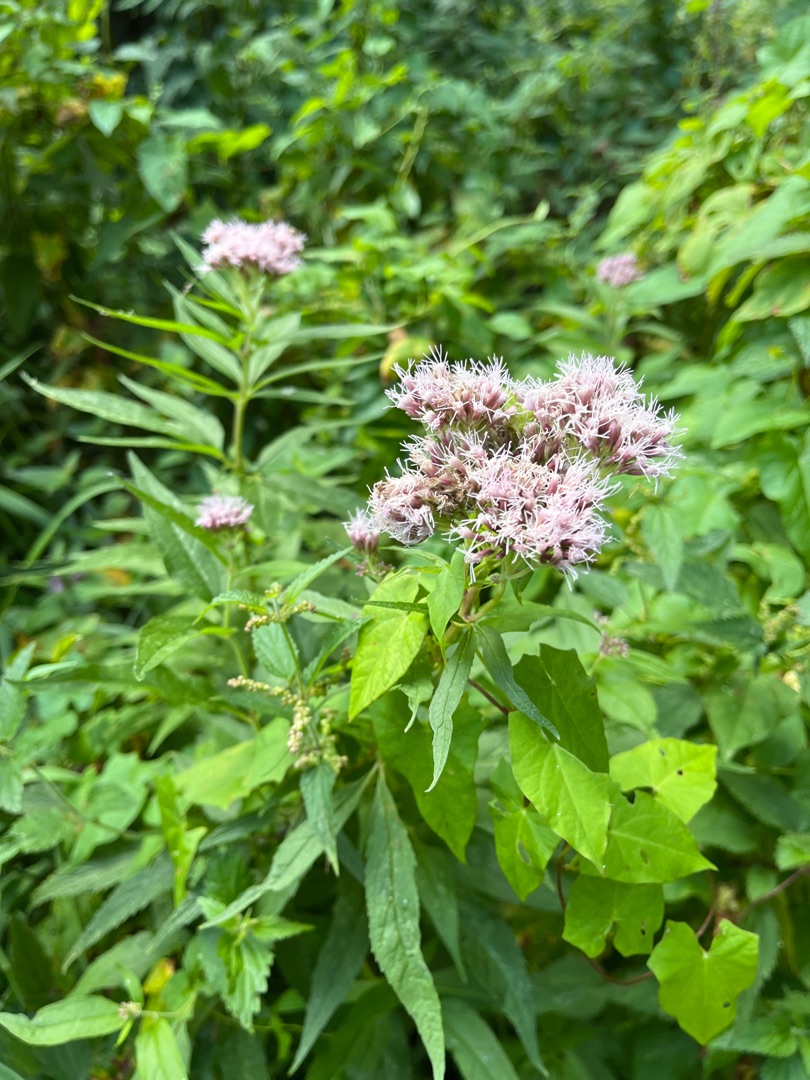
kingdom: Plantae
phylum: Tracheophyta
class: Magnoliopsida
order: Asterales
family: Asteraceae
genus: Eupatorium
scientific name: Eupatorium cannabinum
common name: Hjortetrøst
